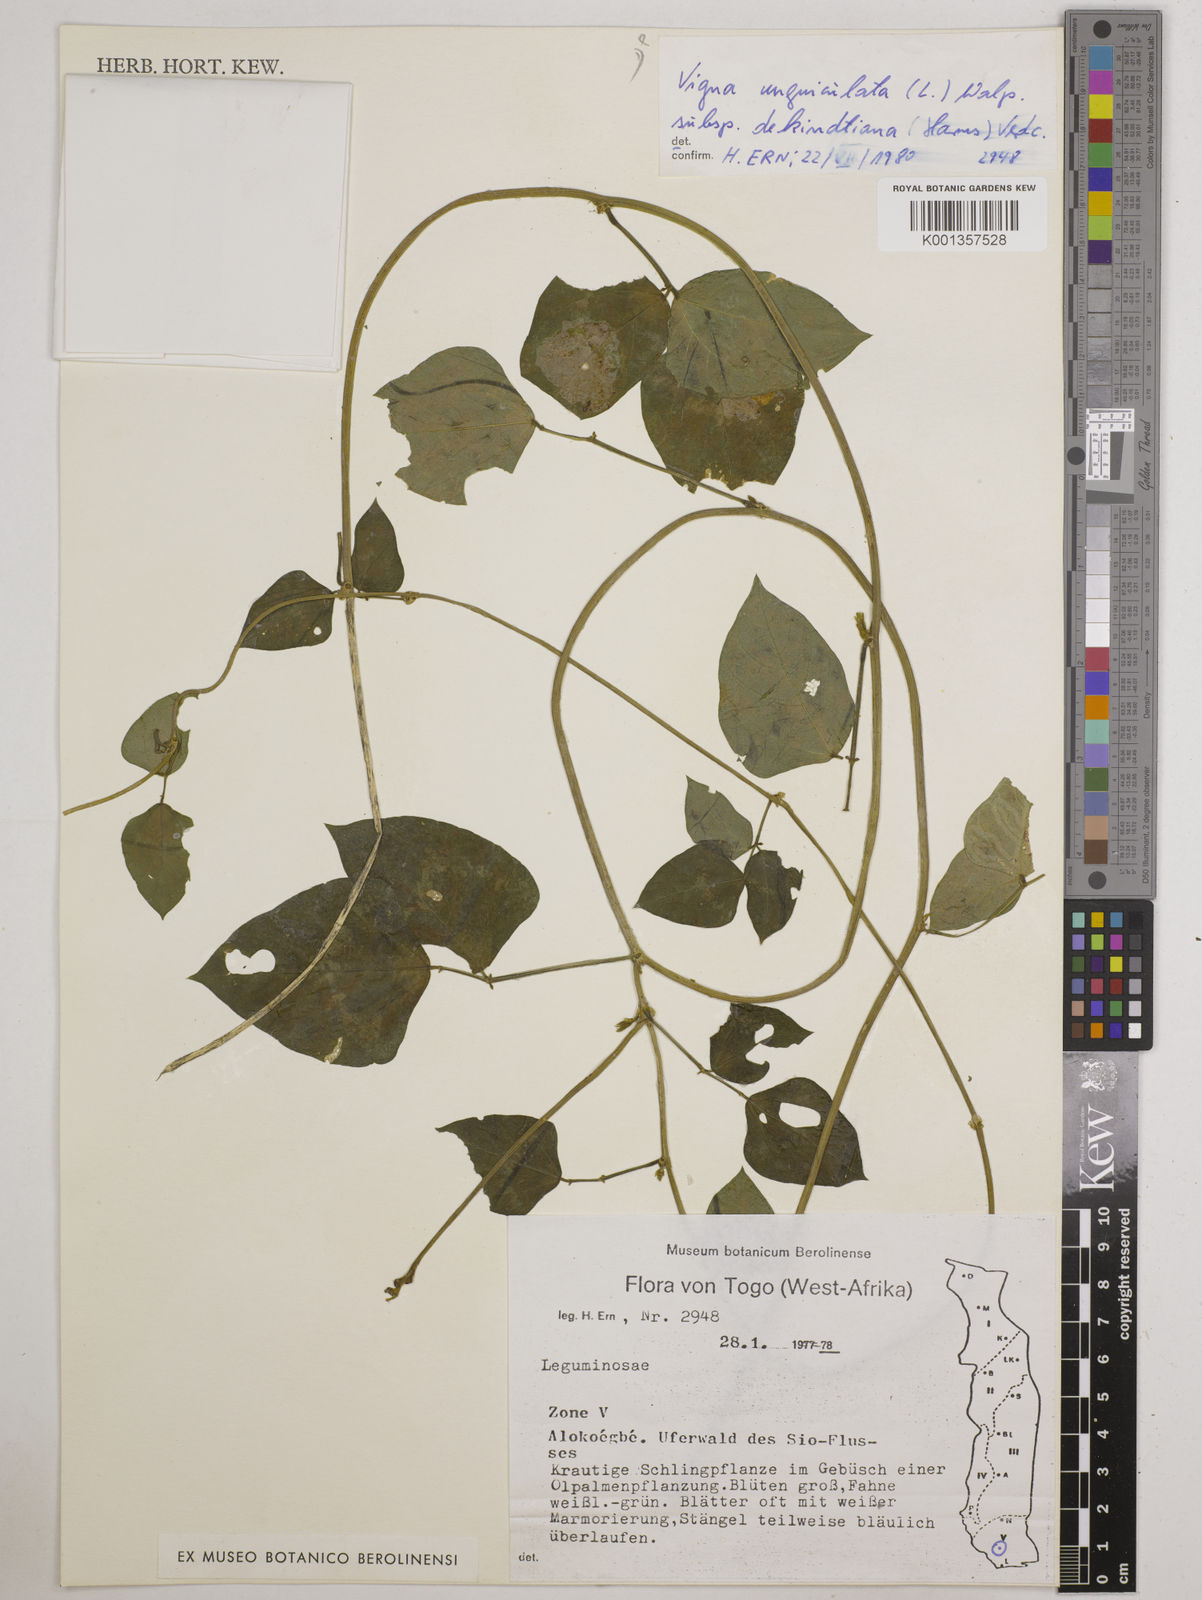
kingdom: Plantae
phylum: Tracheophyta
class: Magnoliopsida
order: Fabales
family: Fabaceae
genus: Vigna
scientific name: Vigna
